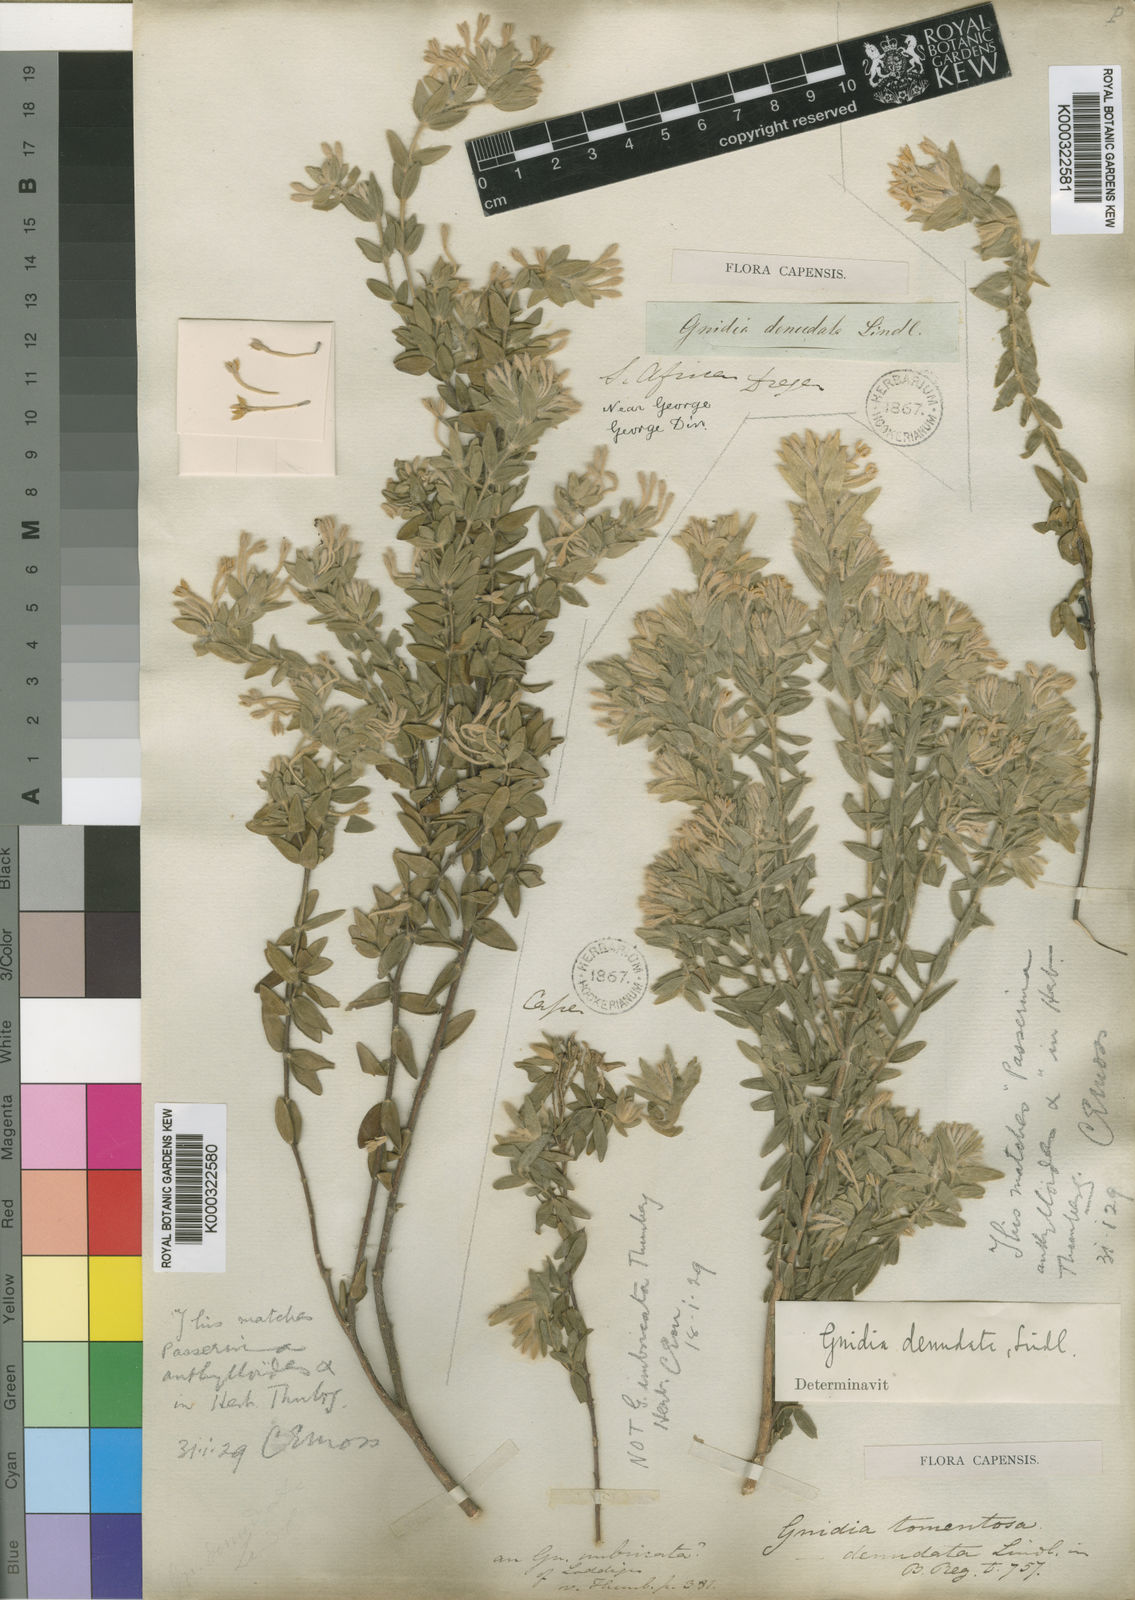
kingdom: Plantae
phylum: Tracheophyta
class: Magnoliopsida
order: Malvales
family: Thymelaeaceae
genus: Gnidia
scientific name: Gnidia virescens
